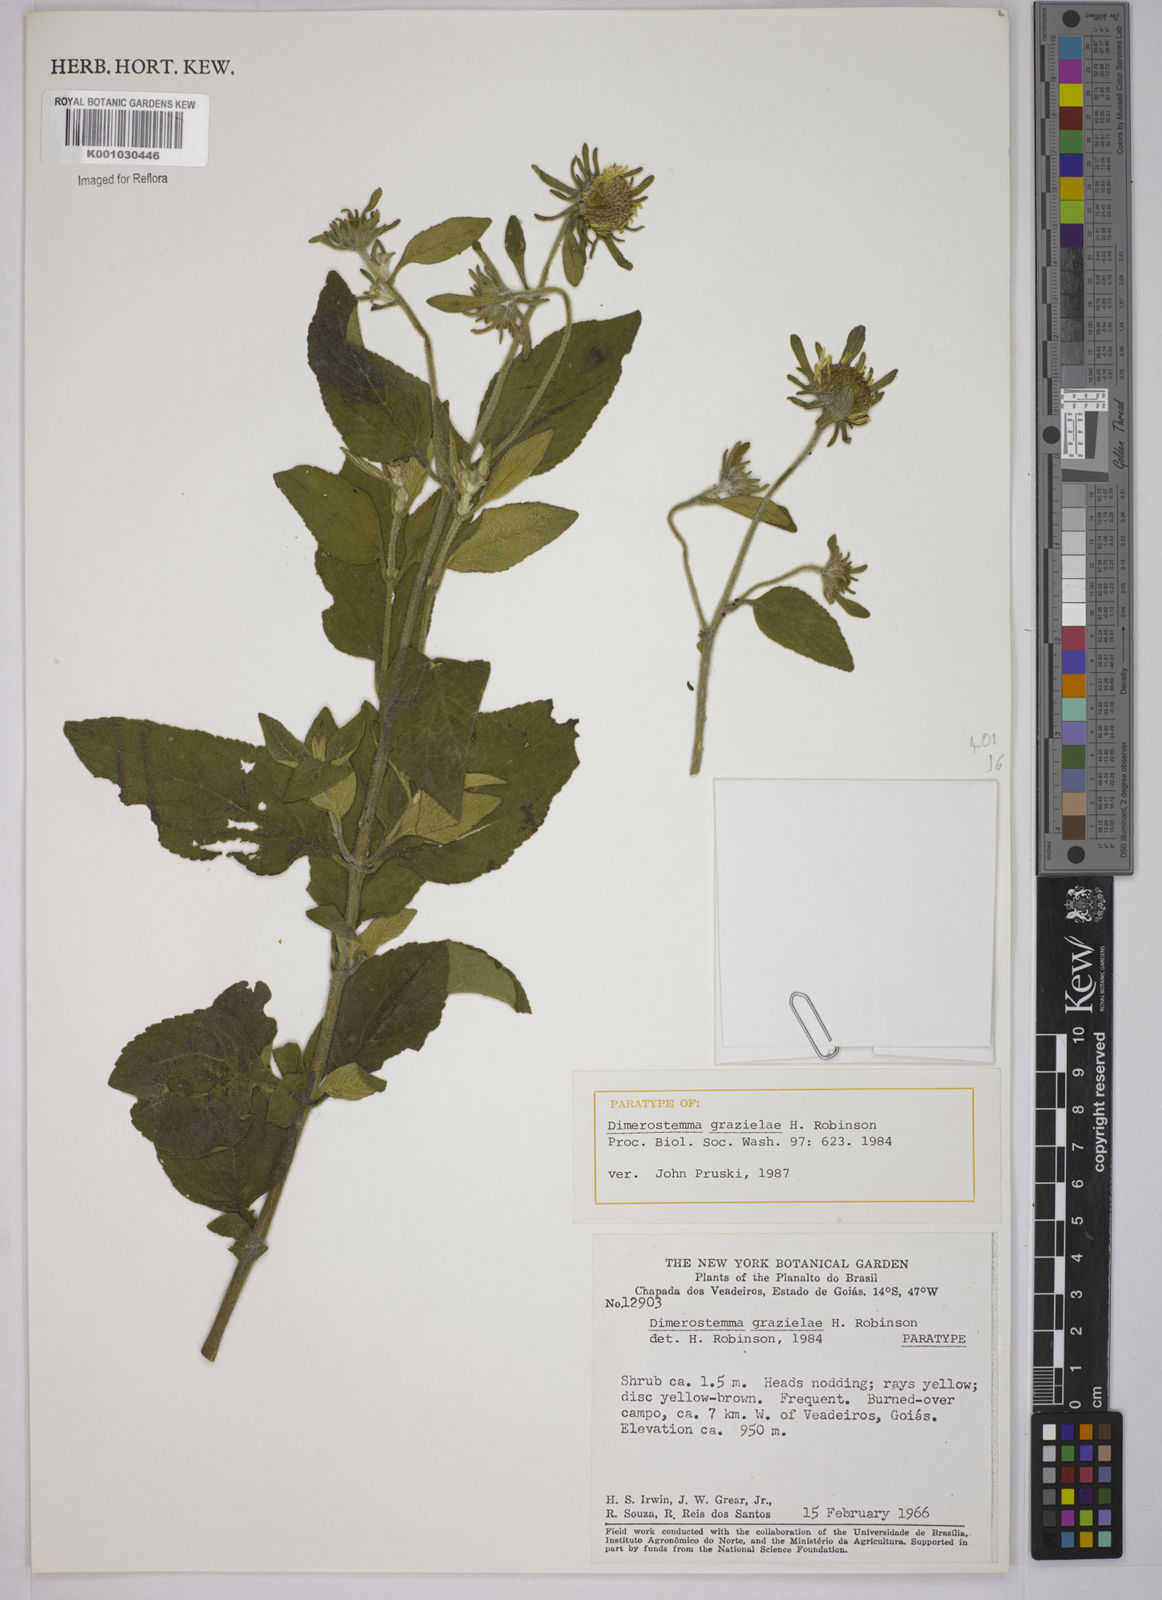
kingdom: Plantae
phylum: Tracheophyta
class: Magnoliopsida
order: Asterales
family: Asteraceae
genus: Dimerostemma
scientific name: Dimerostemma grazielae
